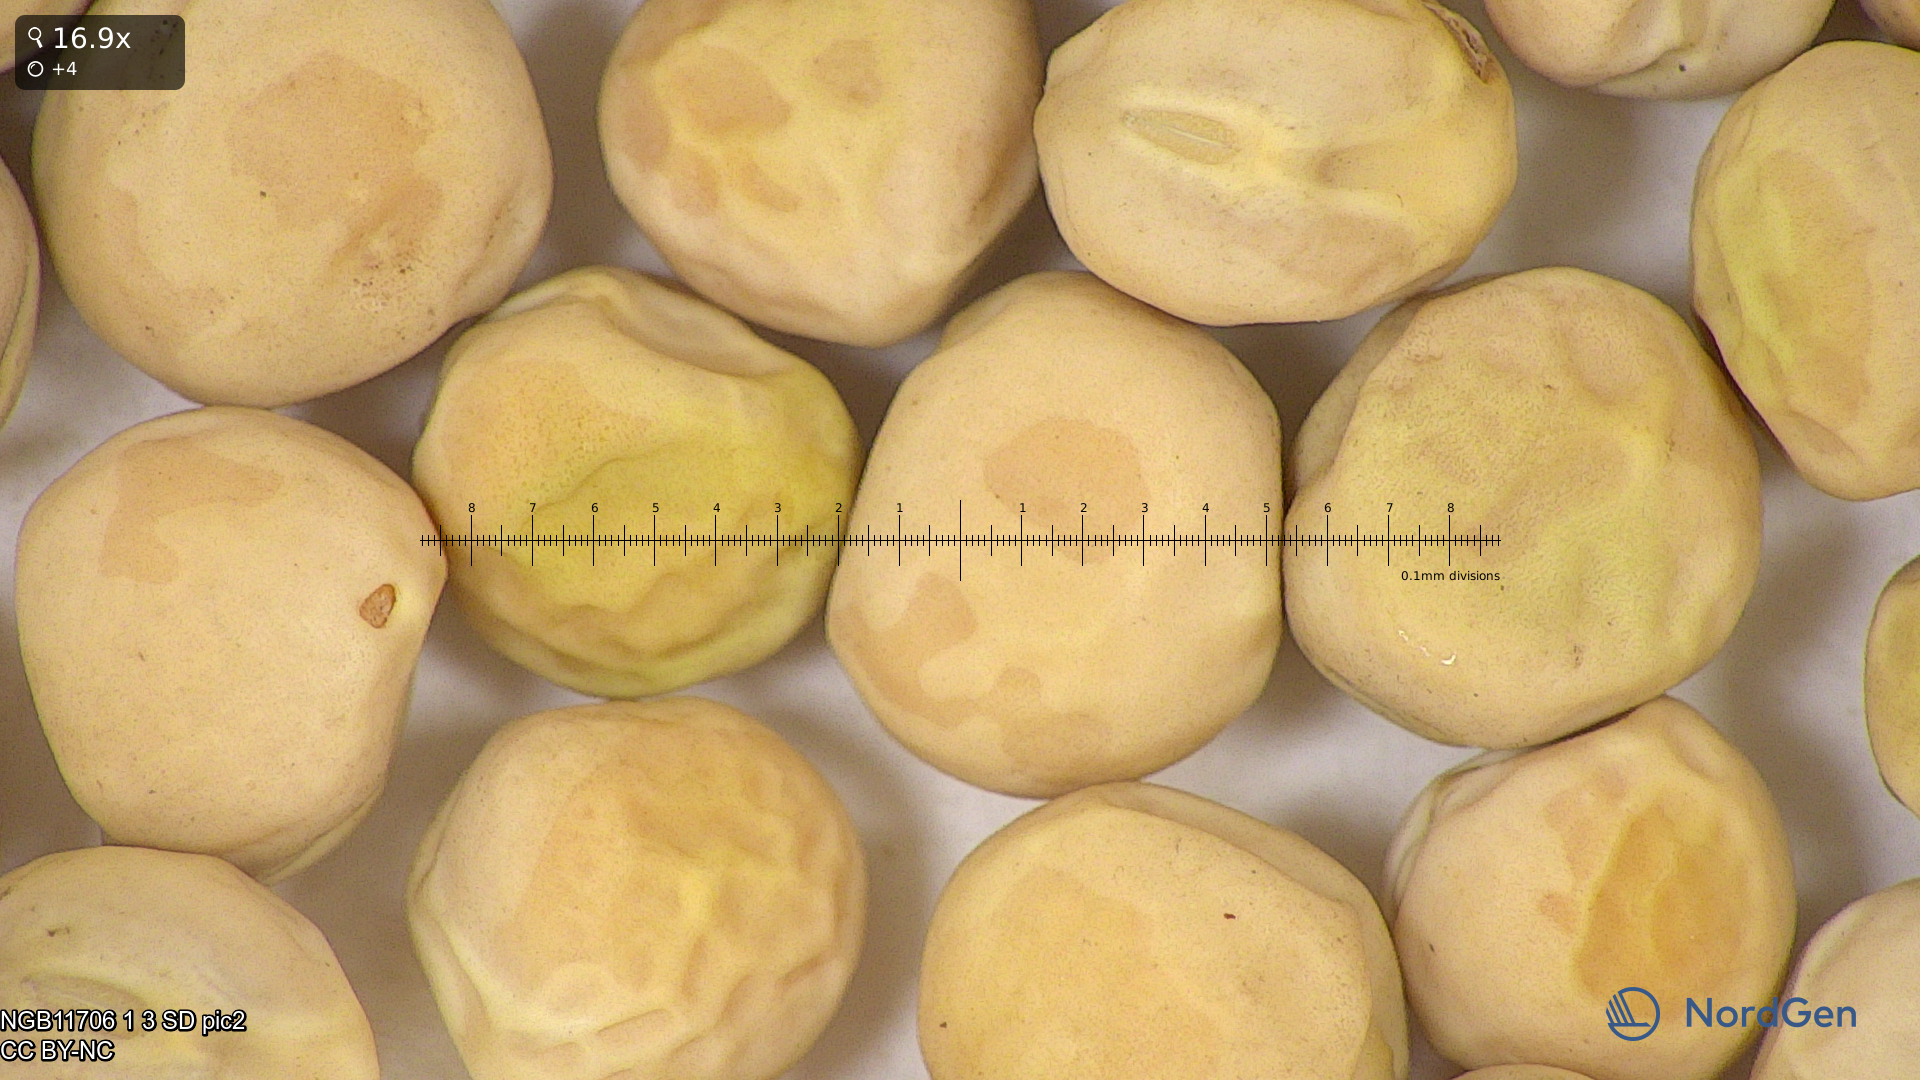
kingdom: Plantae
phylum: Tracheophyta
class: Magnoliopsida
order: Fabales
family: Fabaceae
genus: Lathyrus
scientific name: Lathyrus oleraceus
